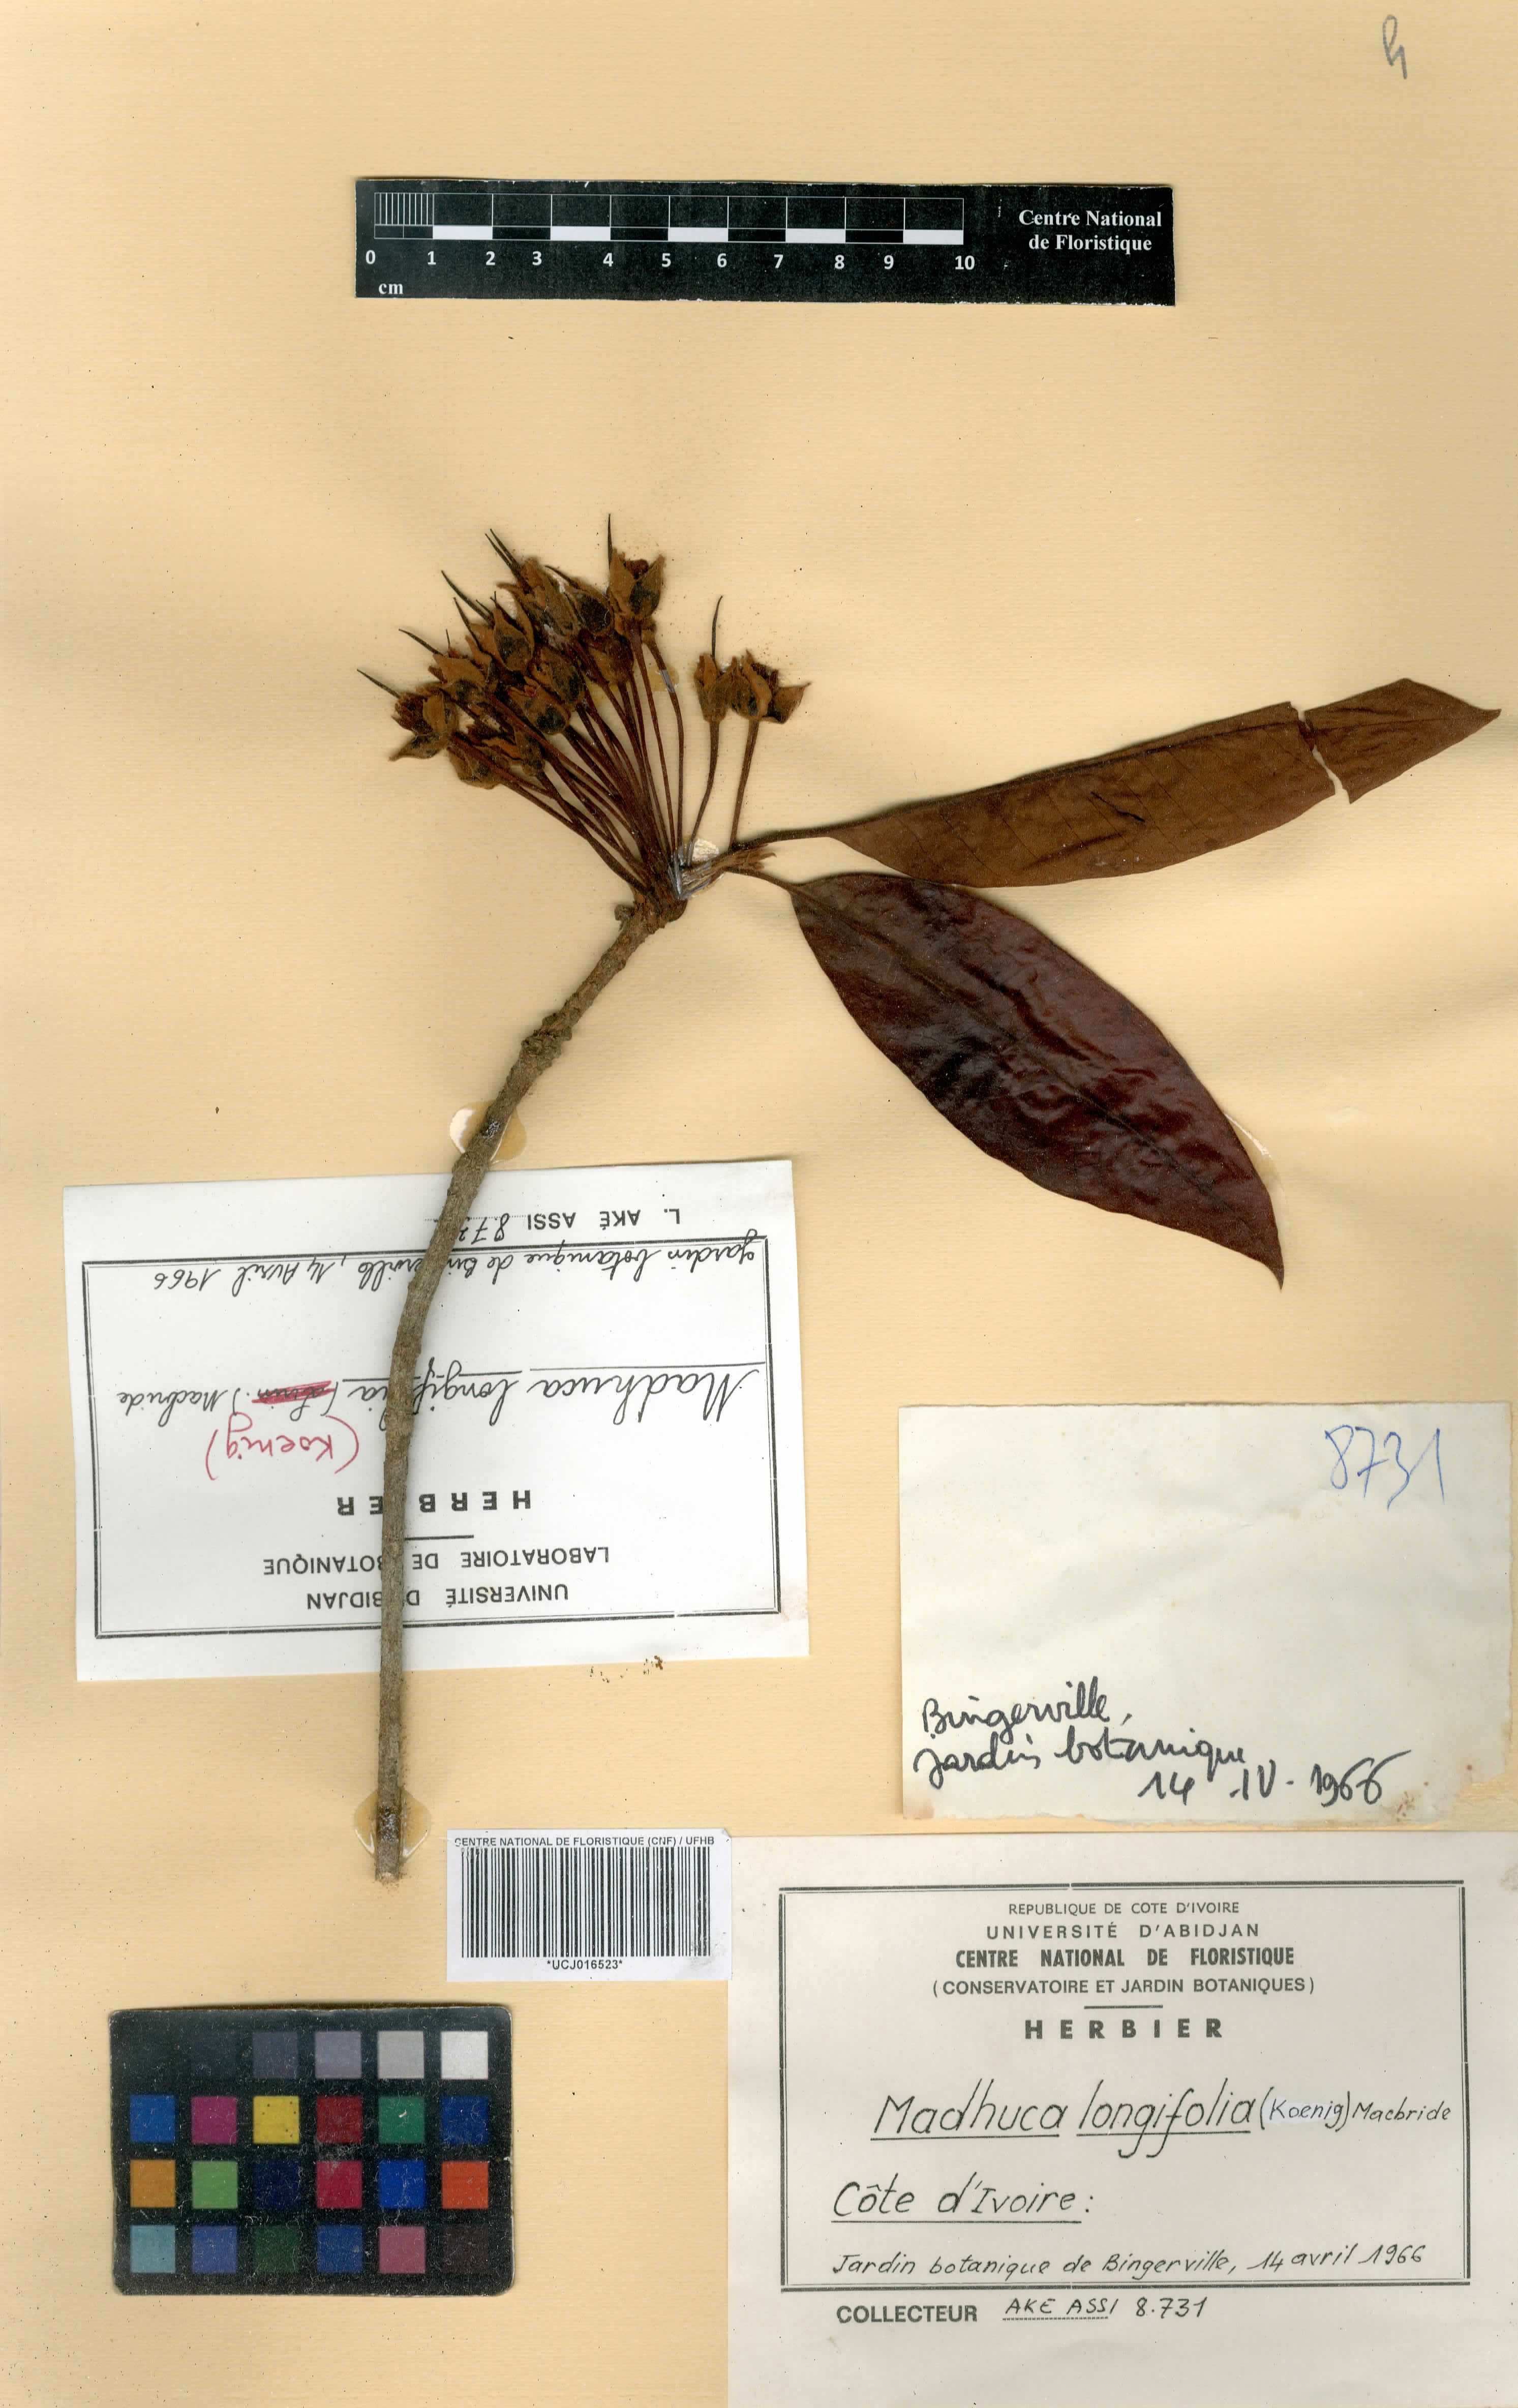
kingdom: Plantae
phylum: Tracheophyta
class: Magnoliopsida
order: Ericales
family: Sapotaceae
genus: Madhuca
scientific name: Madhuca longifolia
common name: Mowra-buttertree
